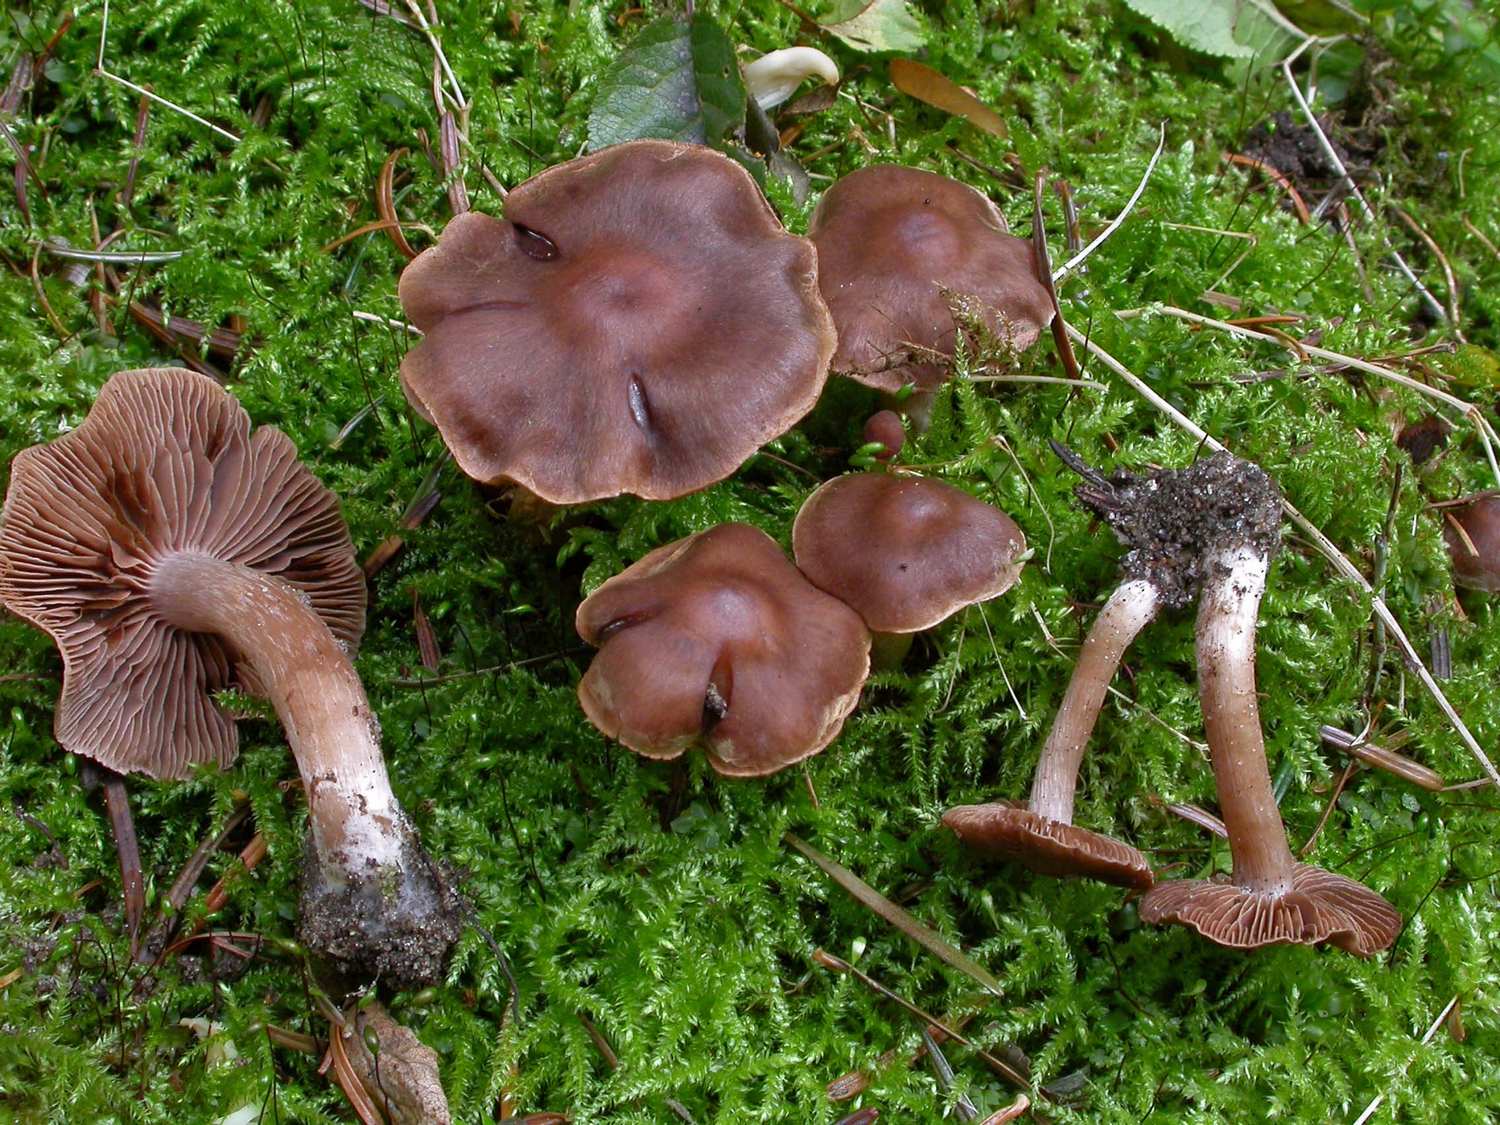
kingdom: Fungi
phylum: Basidiomycota
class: Agaricomycetes
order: Agaricales
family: Cortinariaceae
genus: Cortinarius
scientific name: Cortinarius inconspicuus
